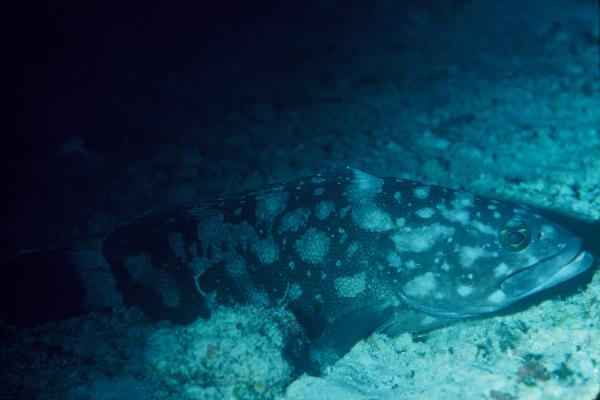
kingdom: Animalia
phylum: Chordata
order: Perciformes
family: Serranidae
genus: Epinephelus
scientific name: Epinephelus coeruleopunctatus
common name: Whitespotted grouper
